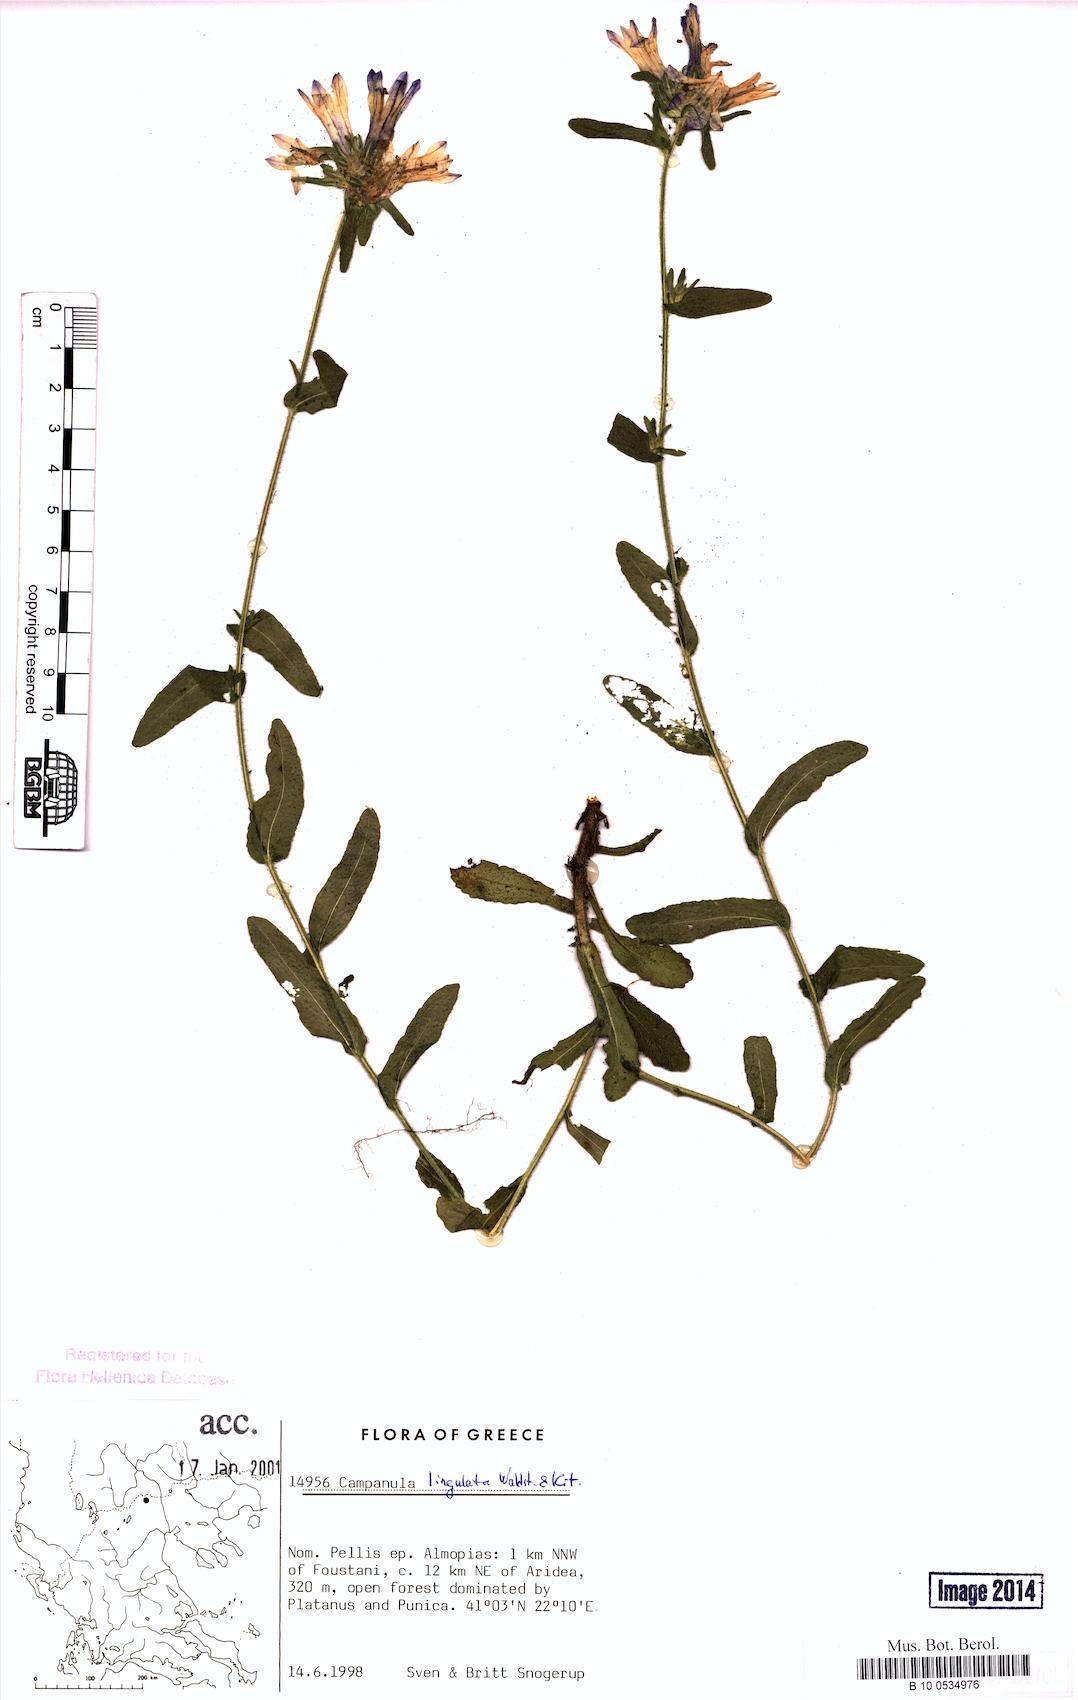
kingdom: Plantae
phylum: Tracheophyta
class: Magnoliopsida
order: Asterales
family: Campanulaceae
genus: Campanula
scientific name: Campanula lingulata
